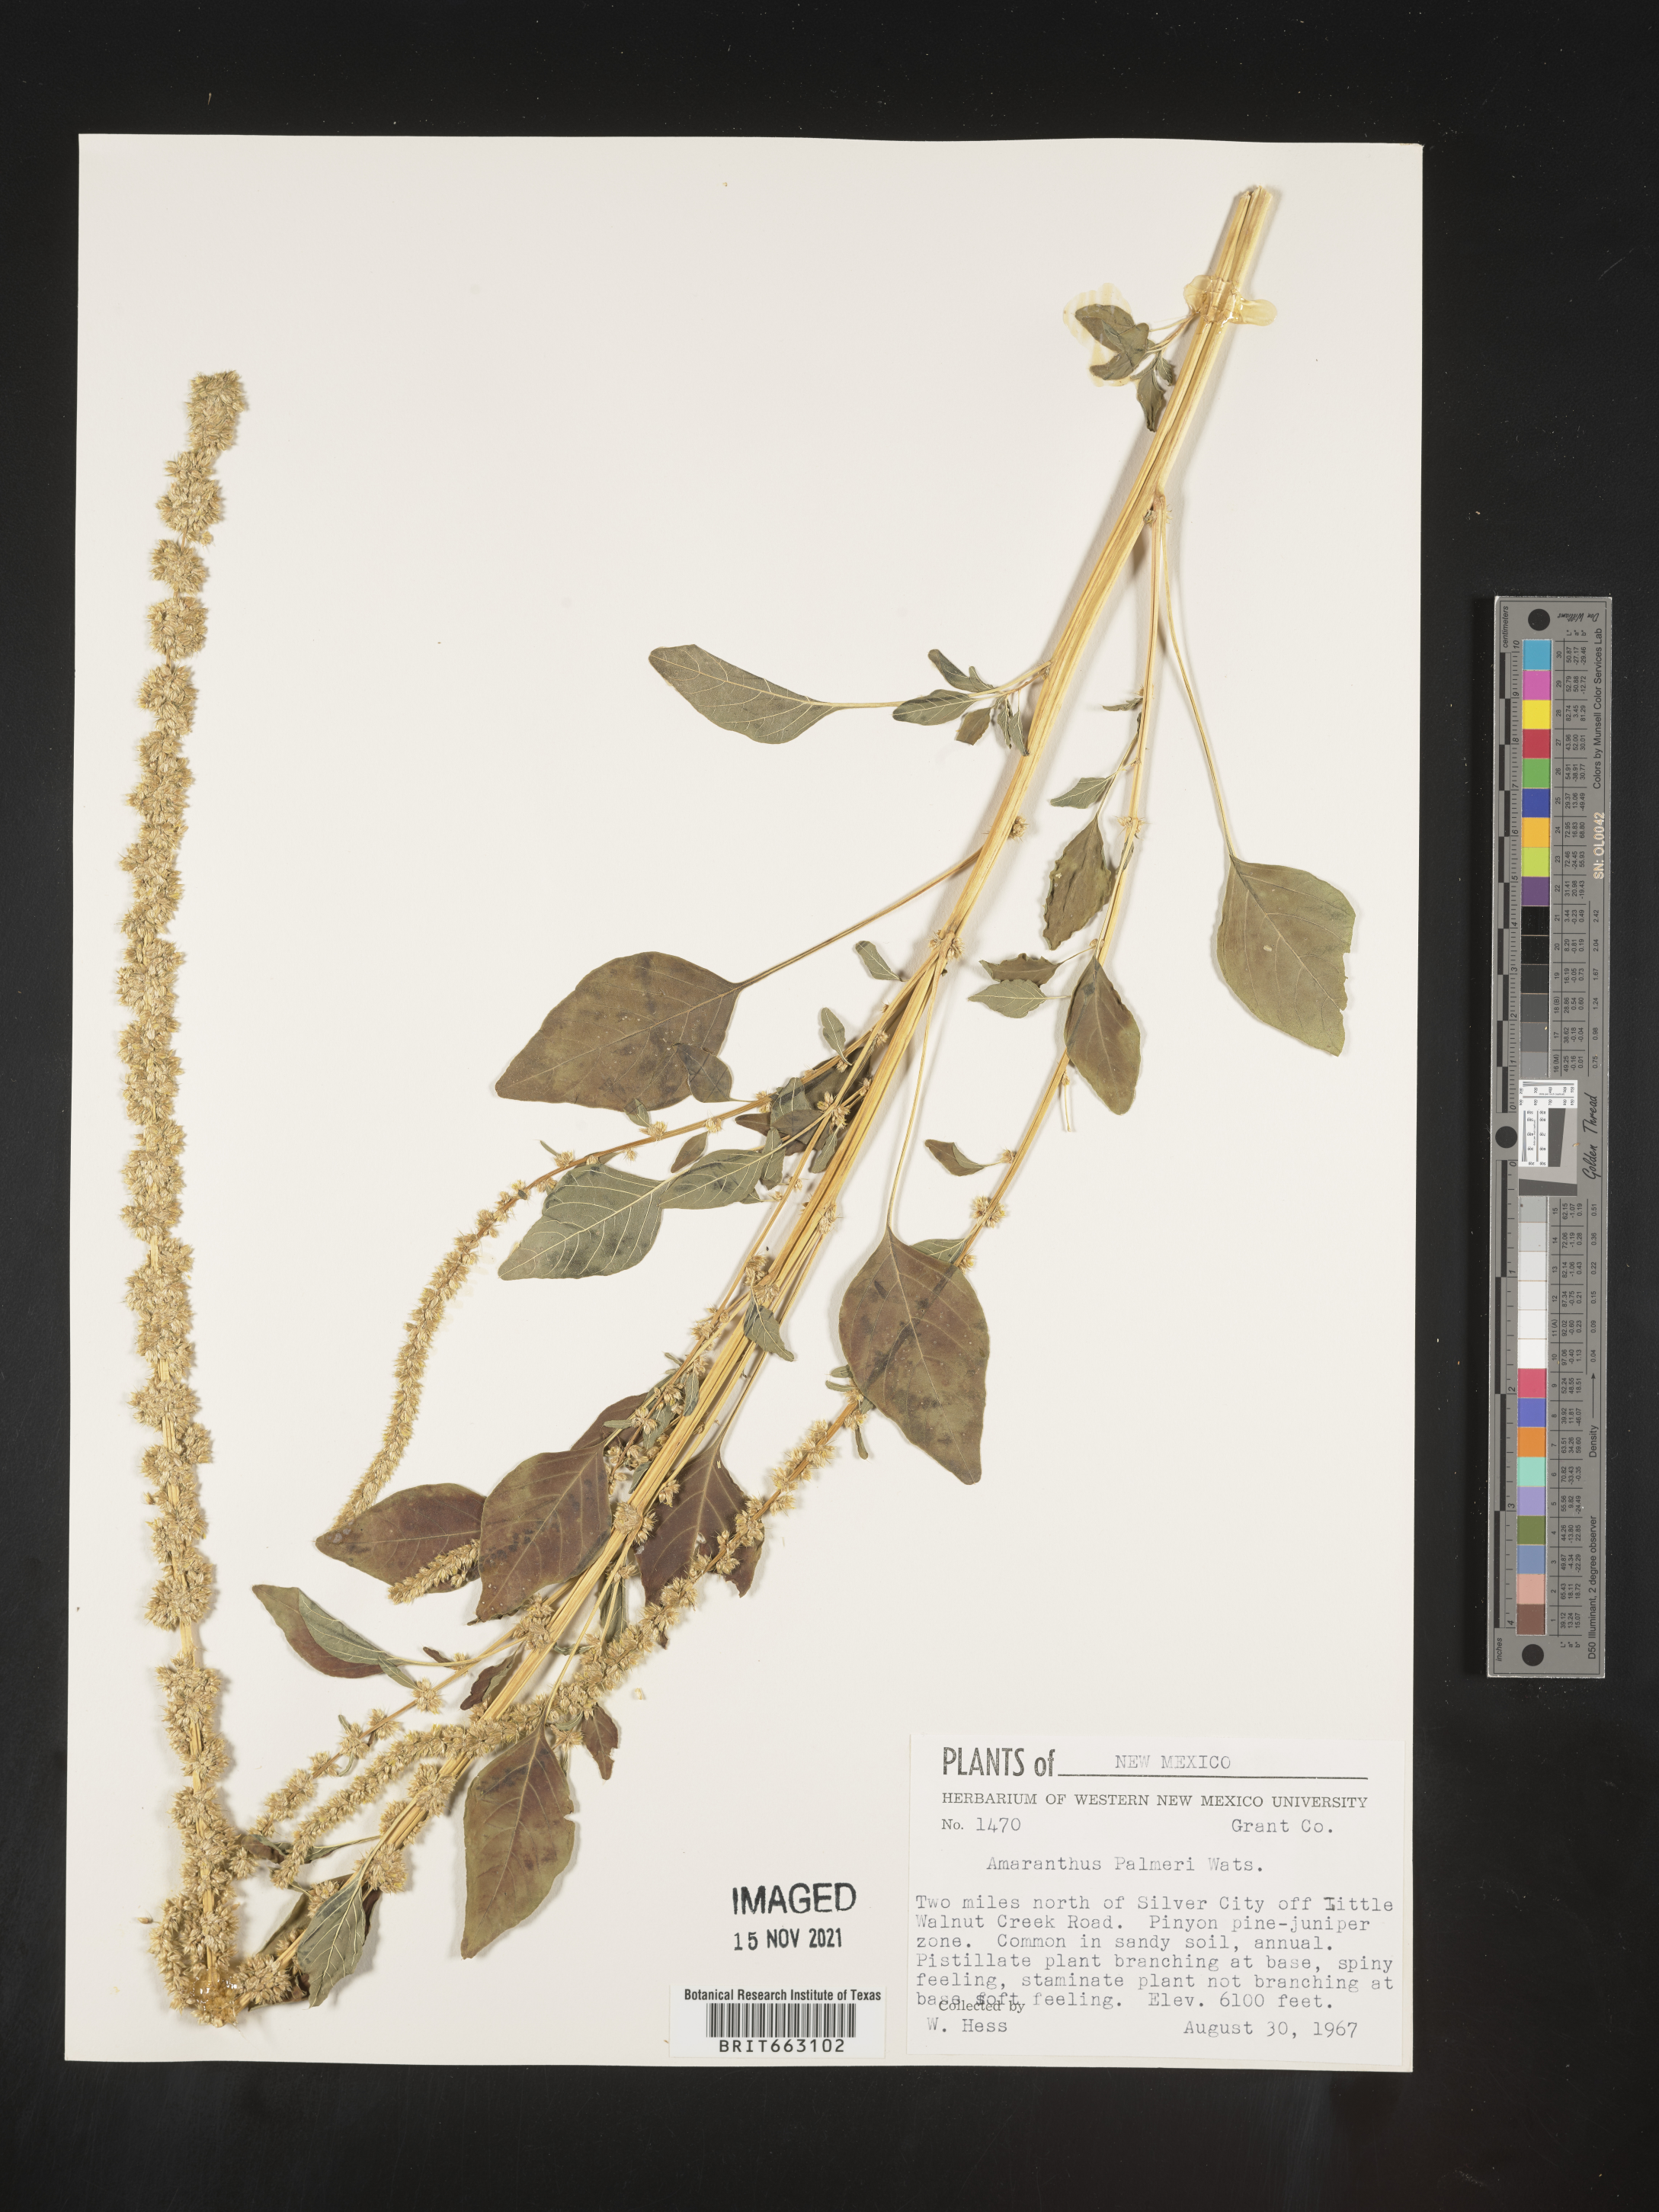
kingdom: Plantae
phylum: Tracheophyta
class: Magnoliopsida
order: Caryophyllales
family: Amaranthaceae
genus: Amaranthus
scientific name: Amaranthus palmeri
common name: Dioecious amaranth
